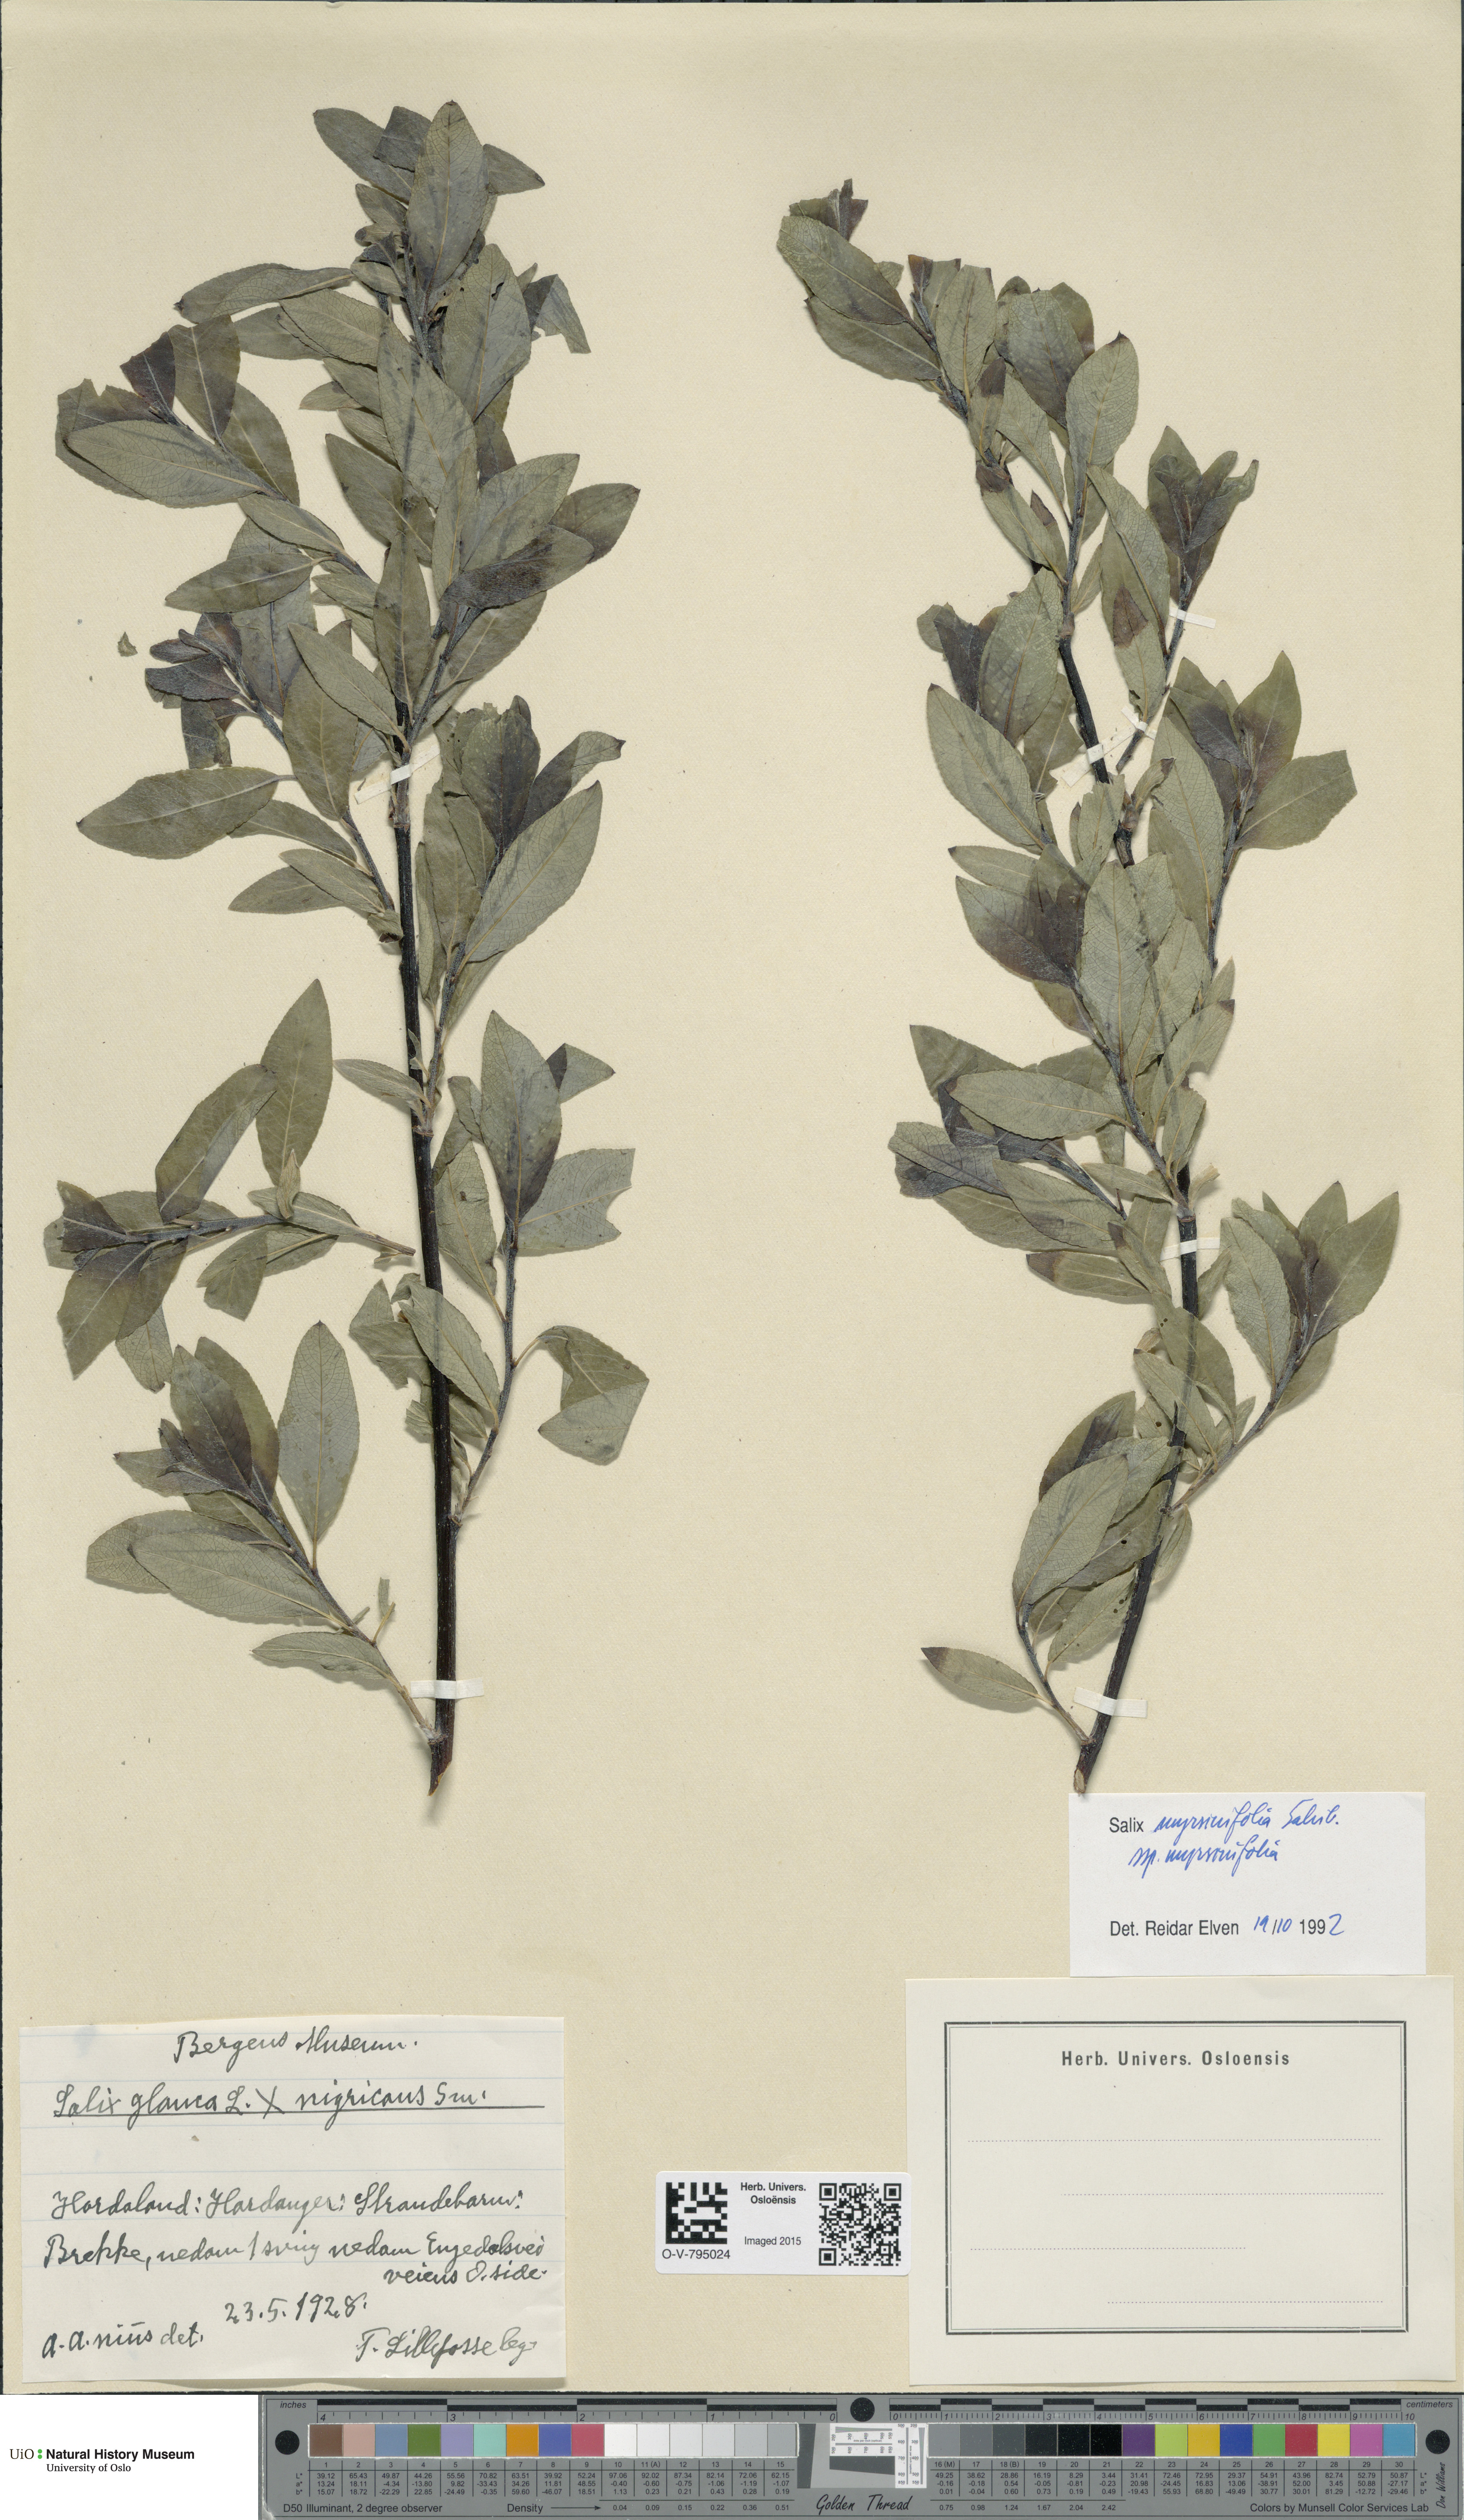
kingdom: Plantae
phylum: Tracheophyta
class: Magnoliopsida
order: Malpighiales
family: Salicaceae
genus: Salix
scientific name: Salix myrsinifolia
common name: Dark-leaved willow
